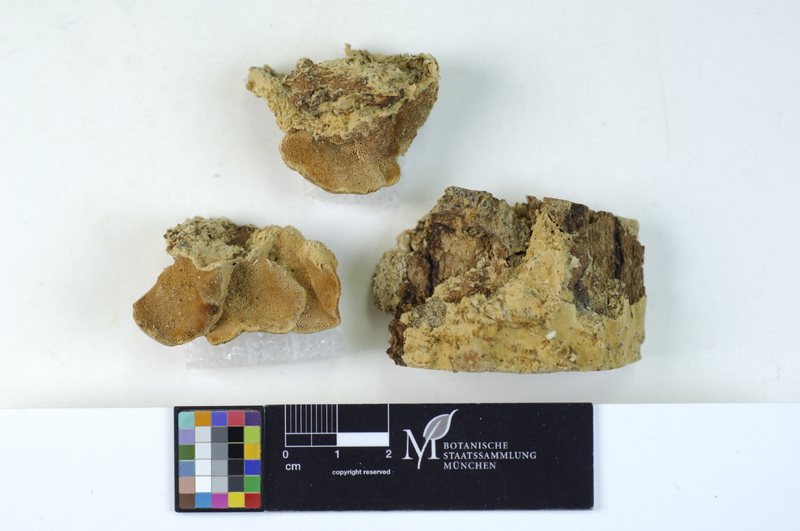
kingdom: Fungi
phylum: Basidiomycota
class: Agaricomycetes
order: Hymenochaetales
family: Oxyporaceae
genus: Oxyporus
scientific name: Oxyporus corticola
